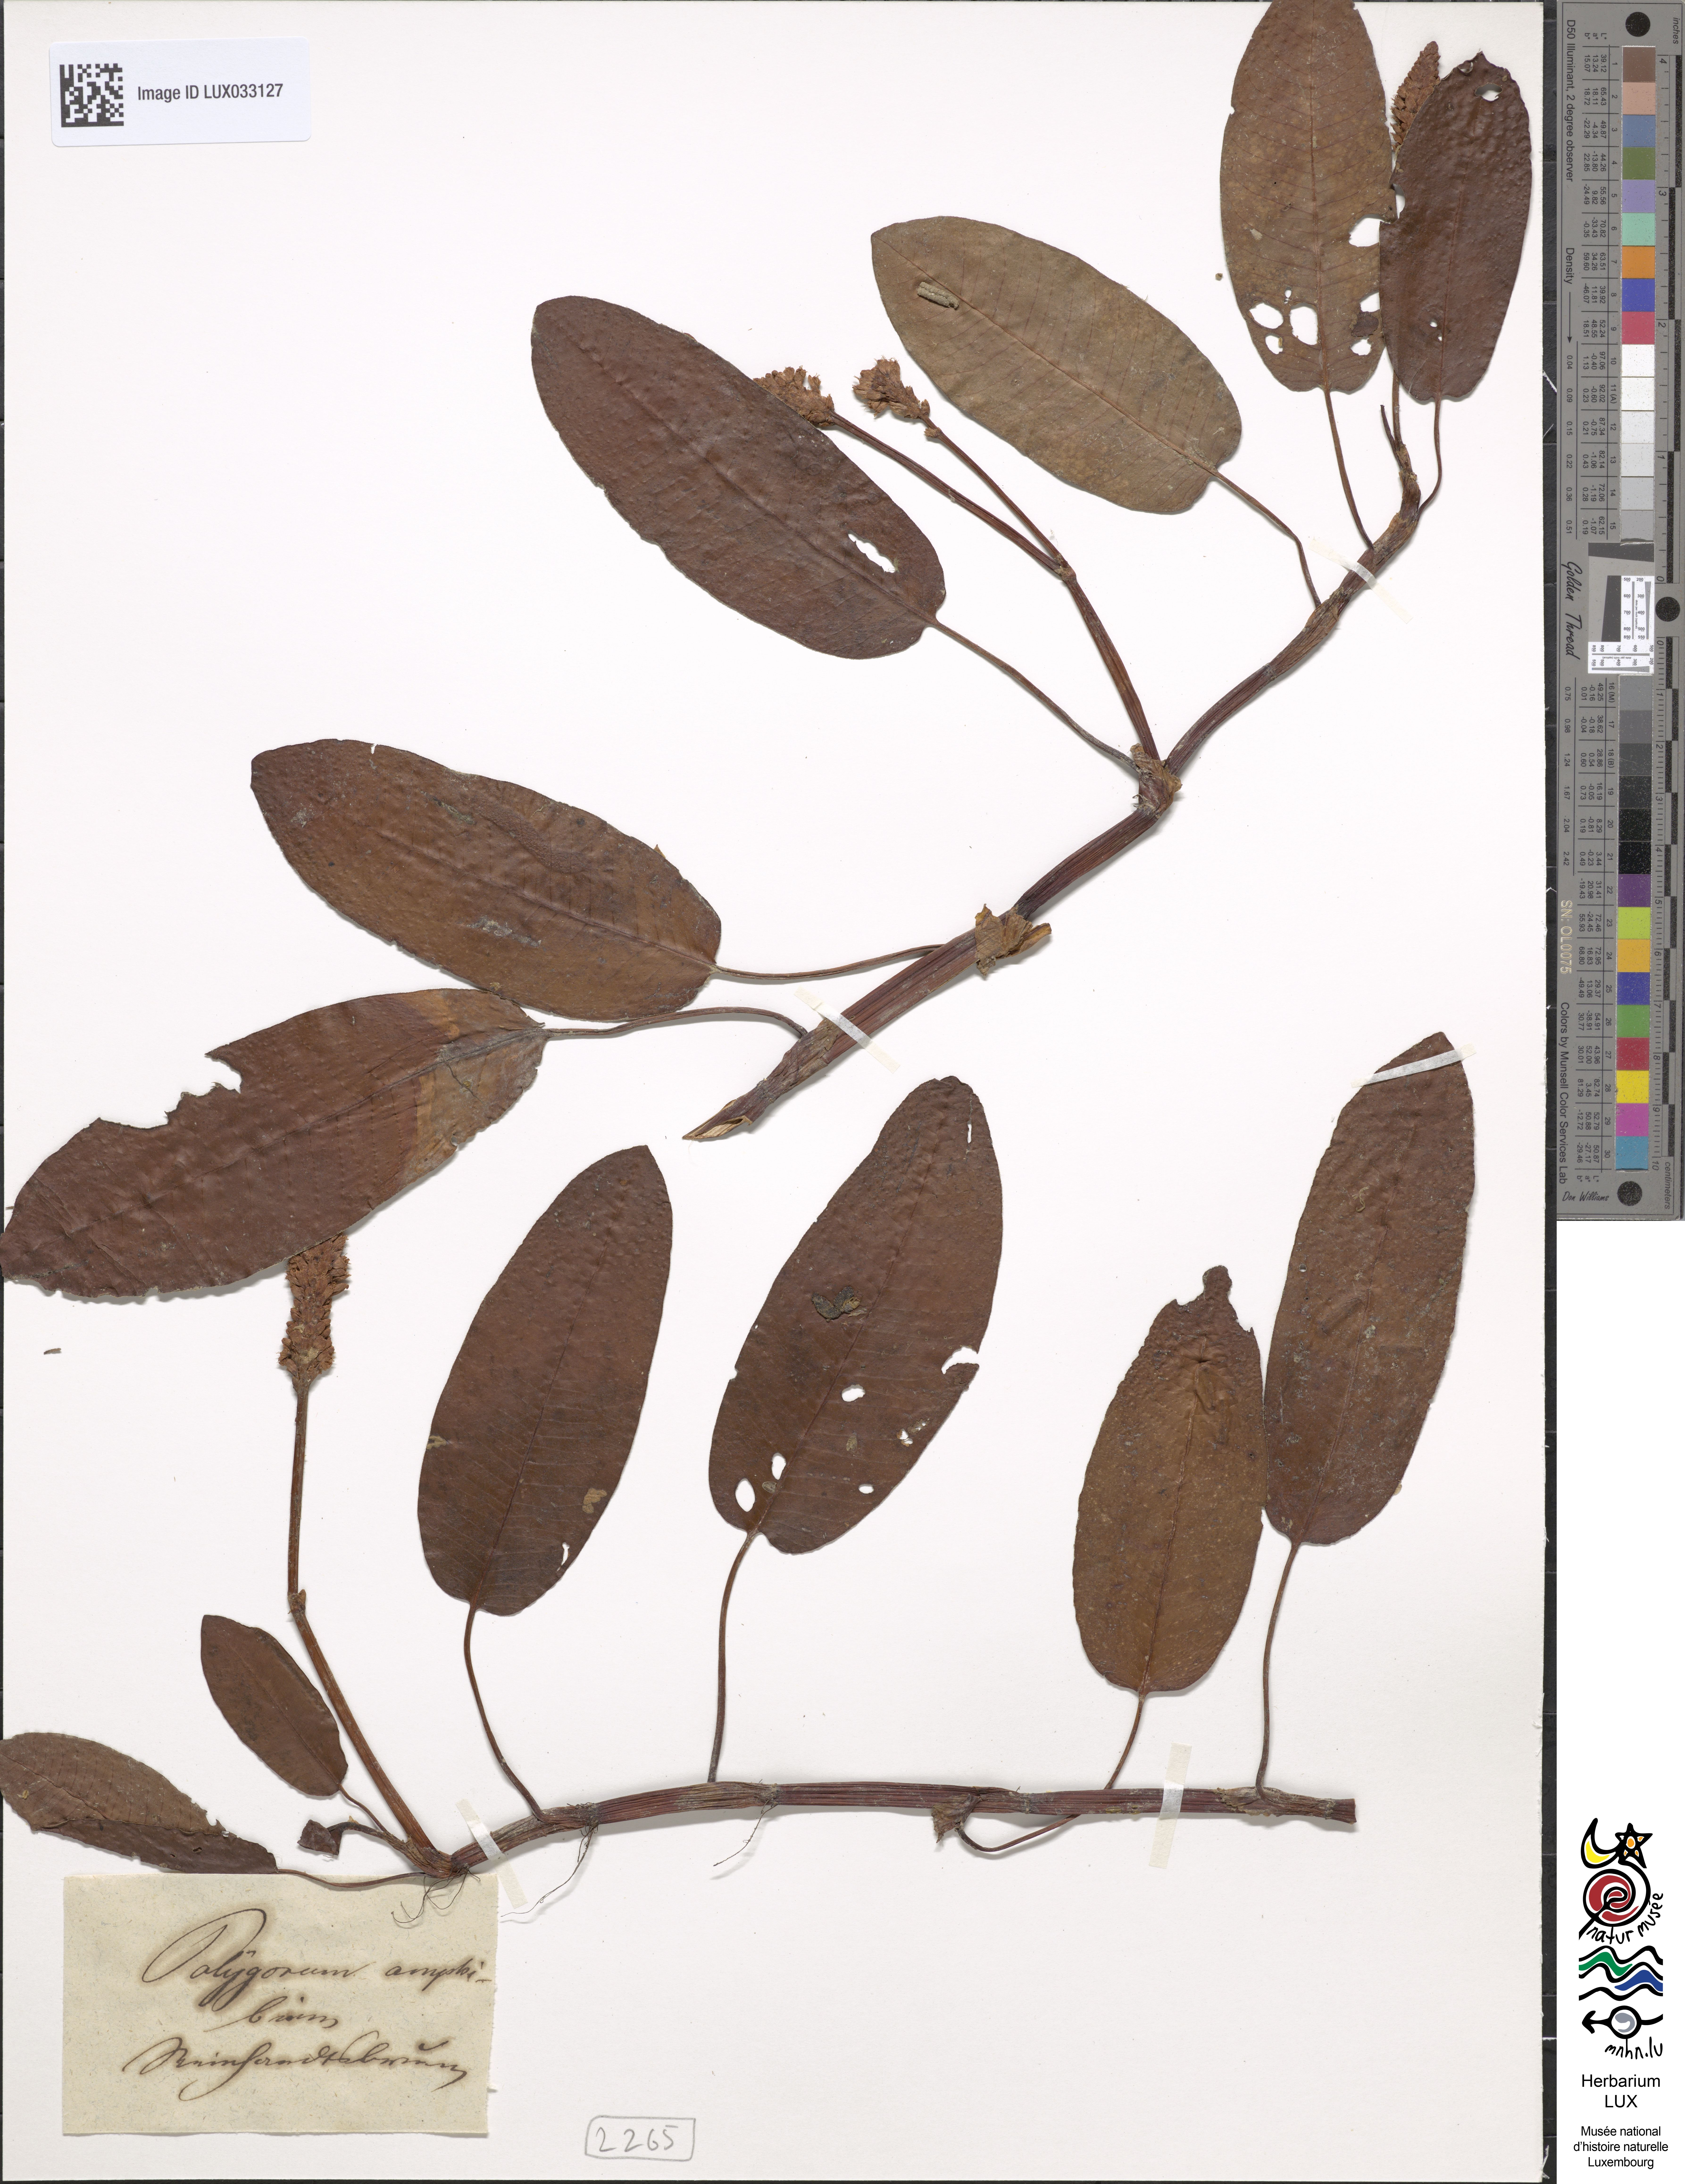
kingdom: Plantae
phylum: Tracheophyta
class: Magnoliopsida
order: Caryophyllales
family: Polygonaceae
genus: Persicaria
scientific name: Persicaria amphibia
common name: Amphibious bistort
